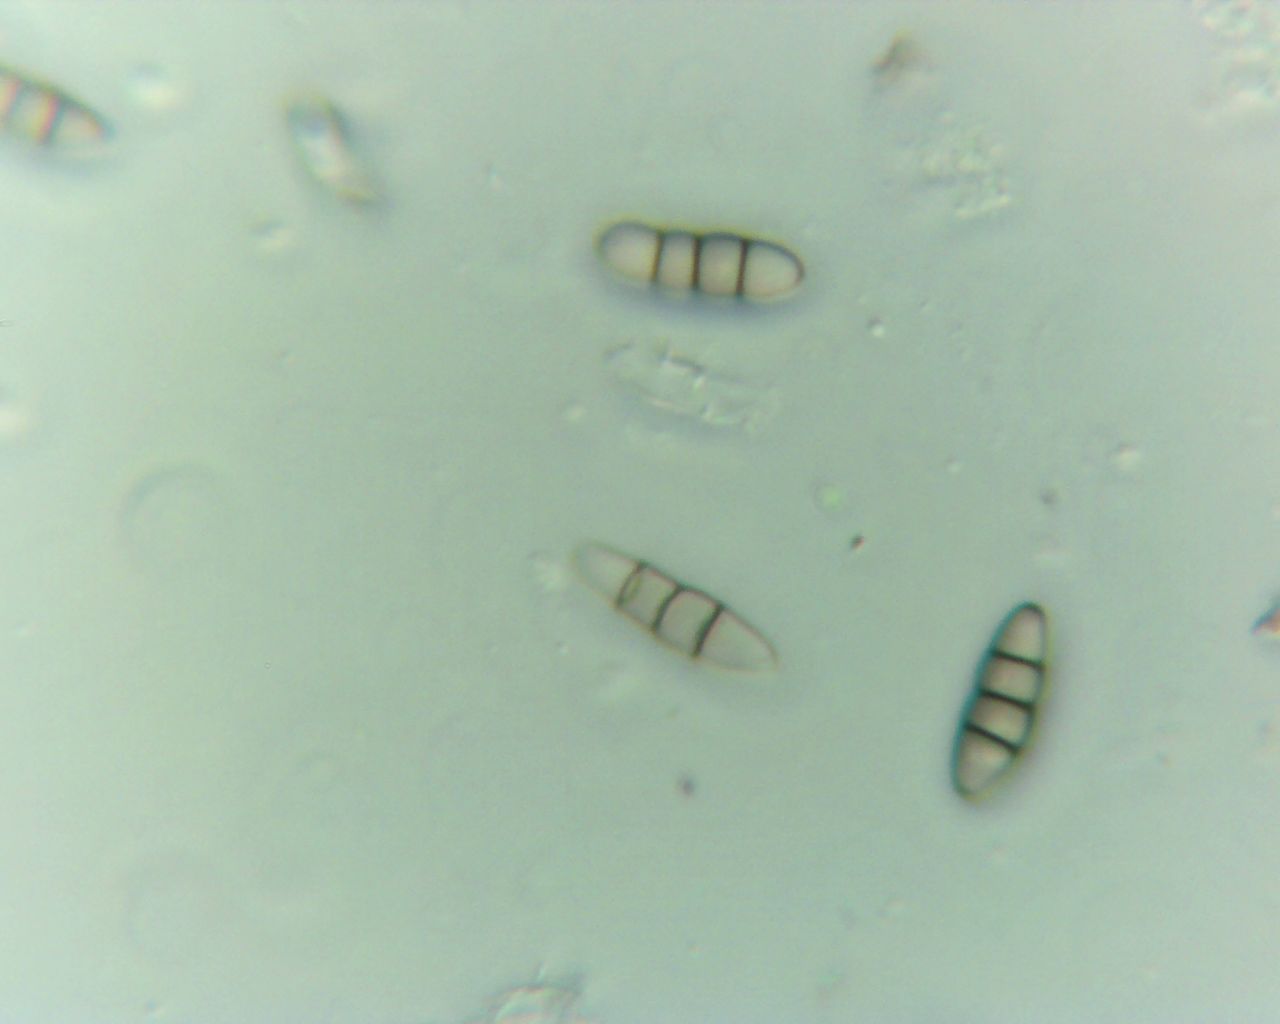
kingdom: Fungi
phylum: Ascomycota
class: Dothideomycetes
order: Pleosporales
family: Melanommataceae
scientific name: Melanommataceae
